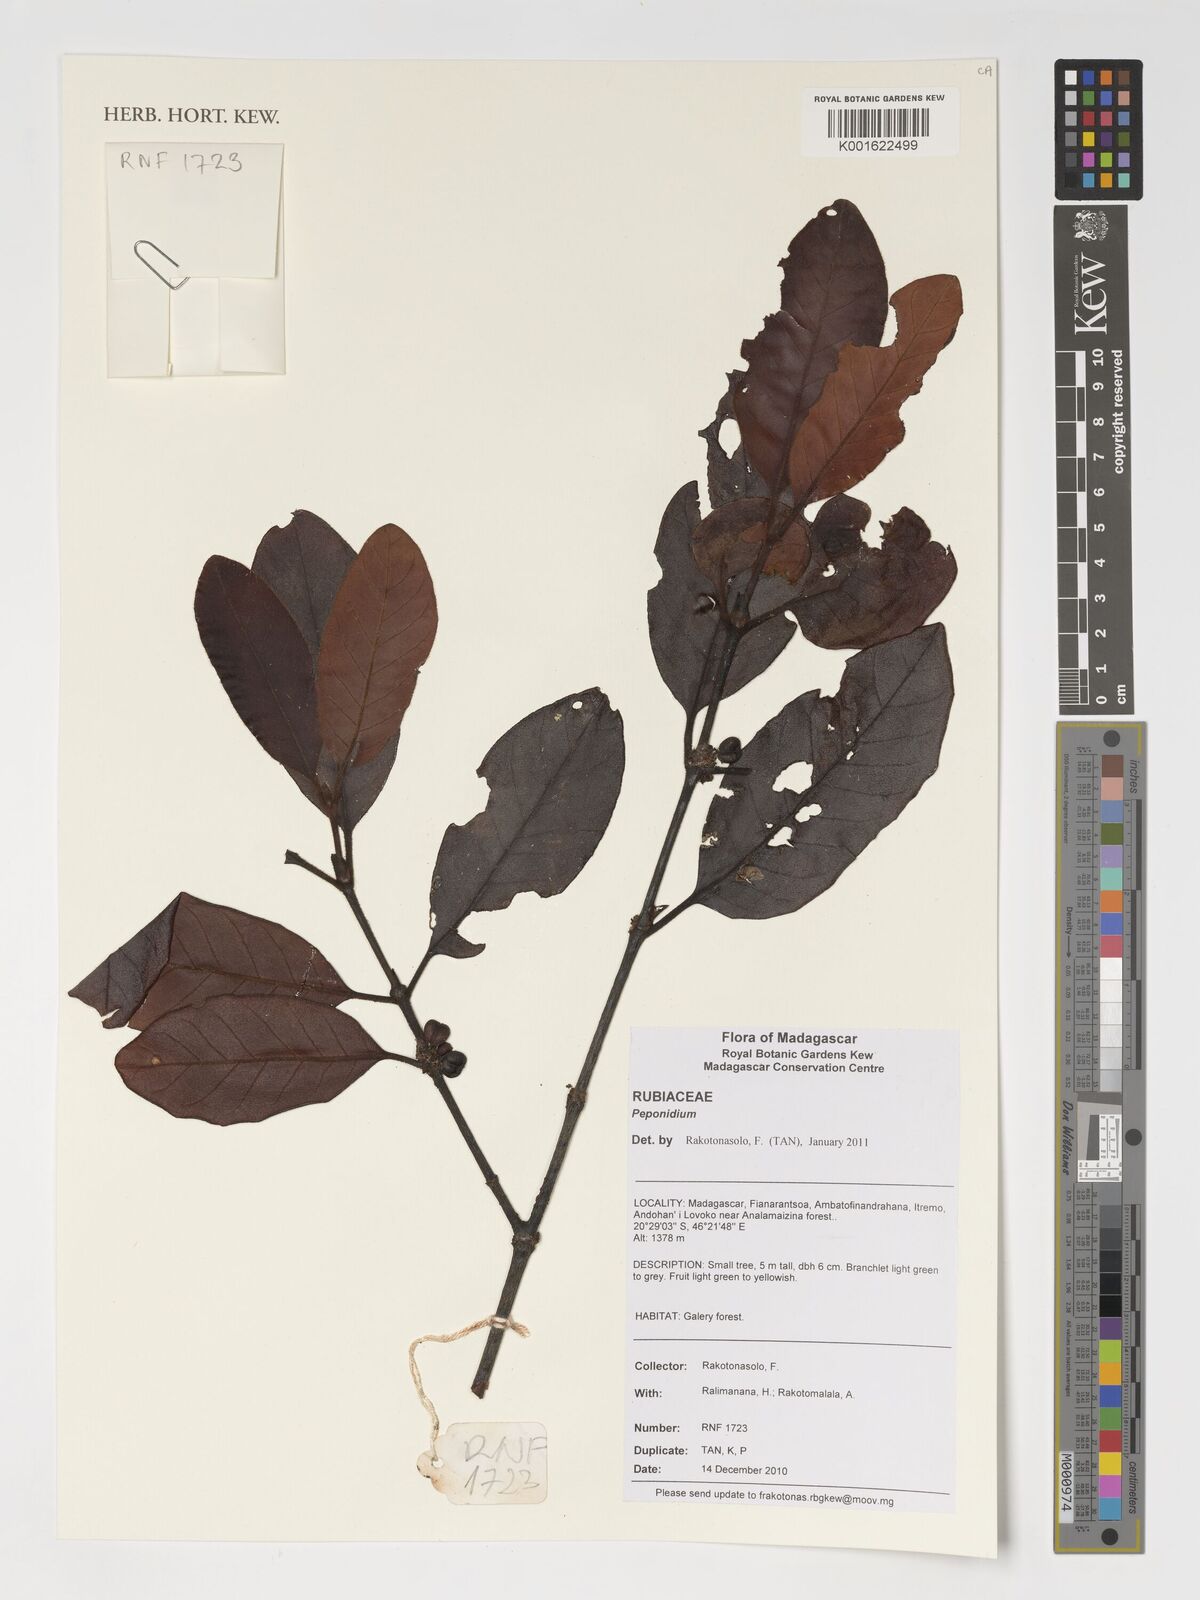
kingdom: Plantae
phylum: Tracheophyta
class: Magnoliopsida
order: Gentianales
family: Rubiaceae
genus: Peponidium
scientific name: Peponidium
